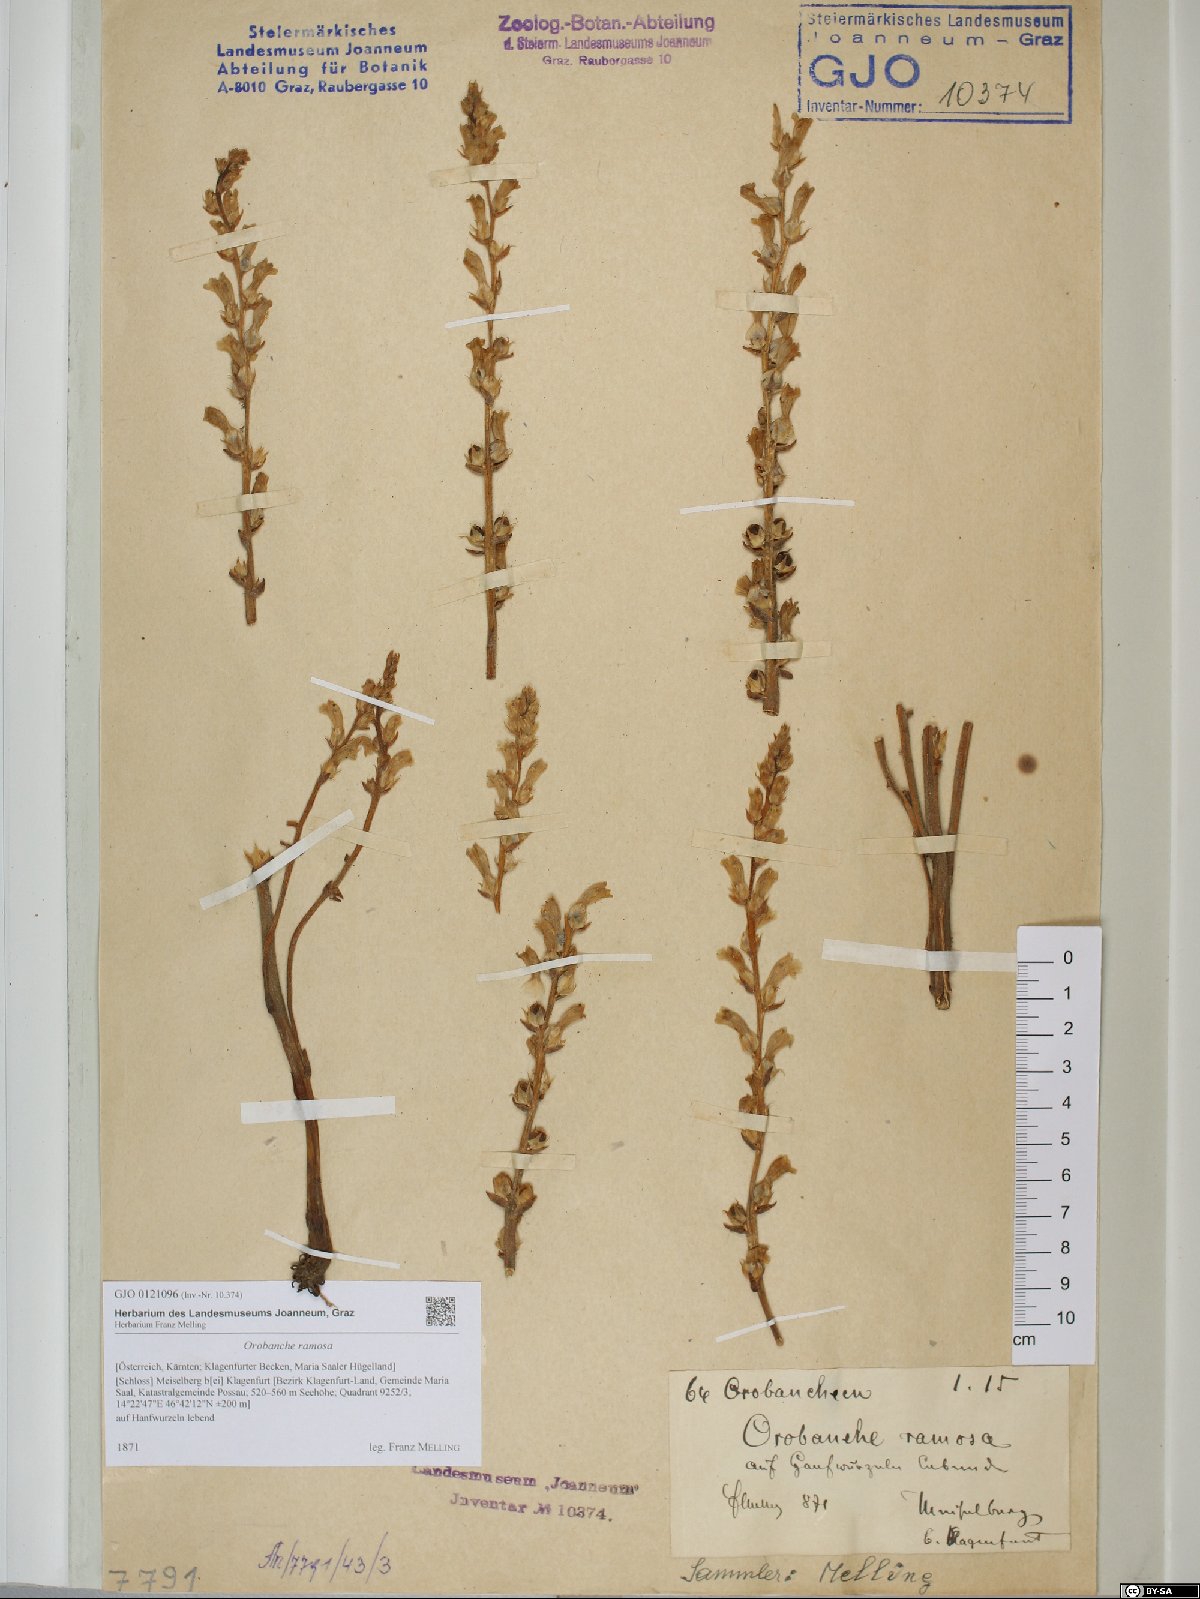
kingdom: Plantae
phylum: Tracheophyta
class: Magnoliopsida
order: Lamiales
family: Orobanchaceae
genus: Phelipanche
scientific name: Phelipanche ramosa
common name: Branched broomrape
